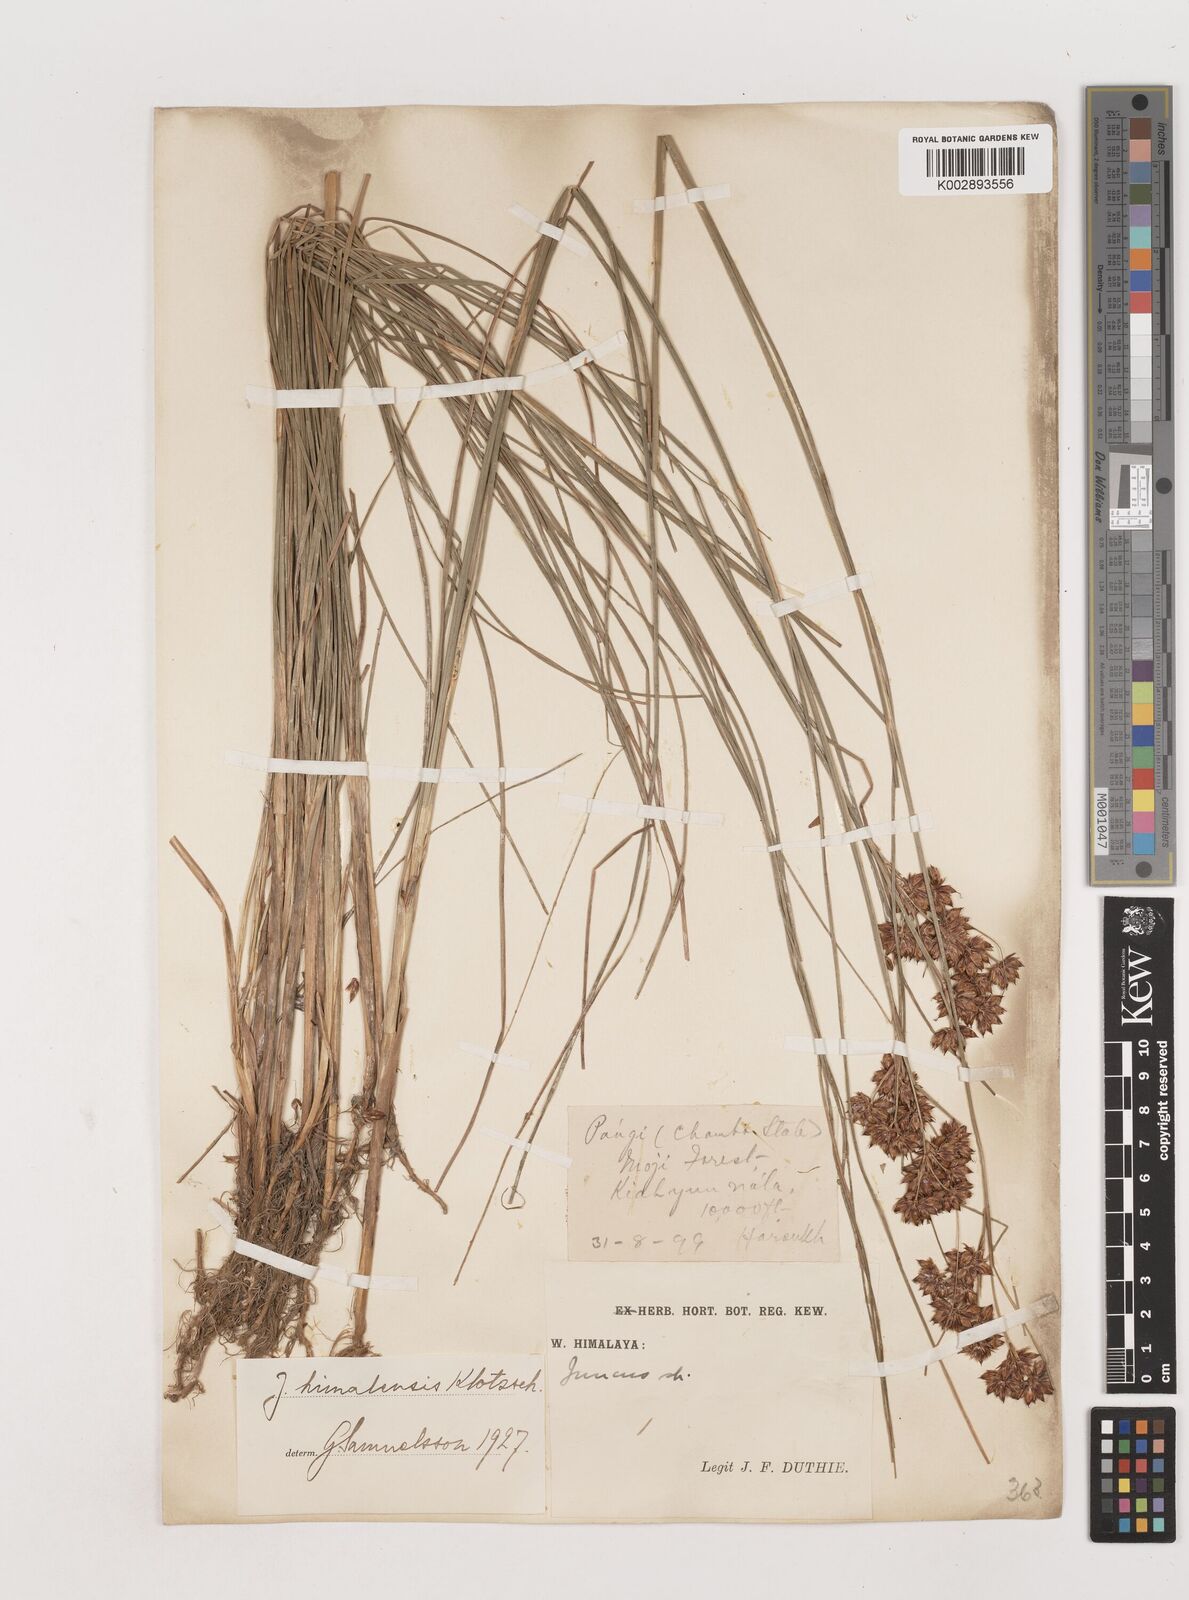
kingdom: Plantae
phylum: Tracheophyta
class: Liliopsida
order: Poales
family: Juncaceae
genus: Juncus
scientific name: Juncus himalensis
